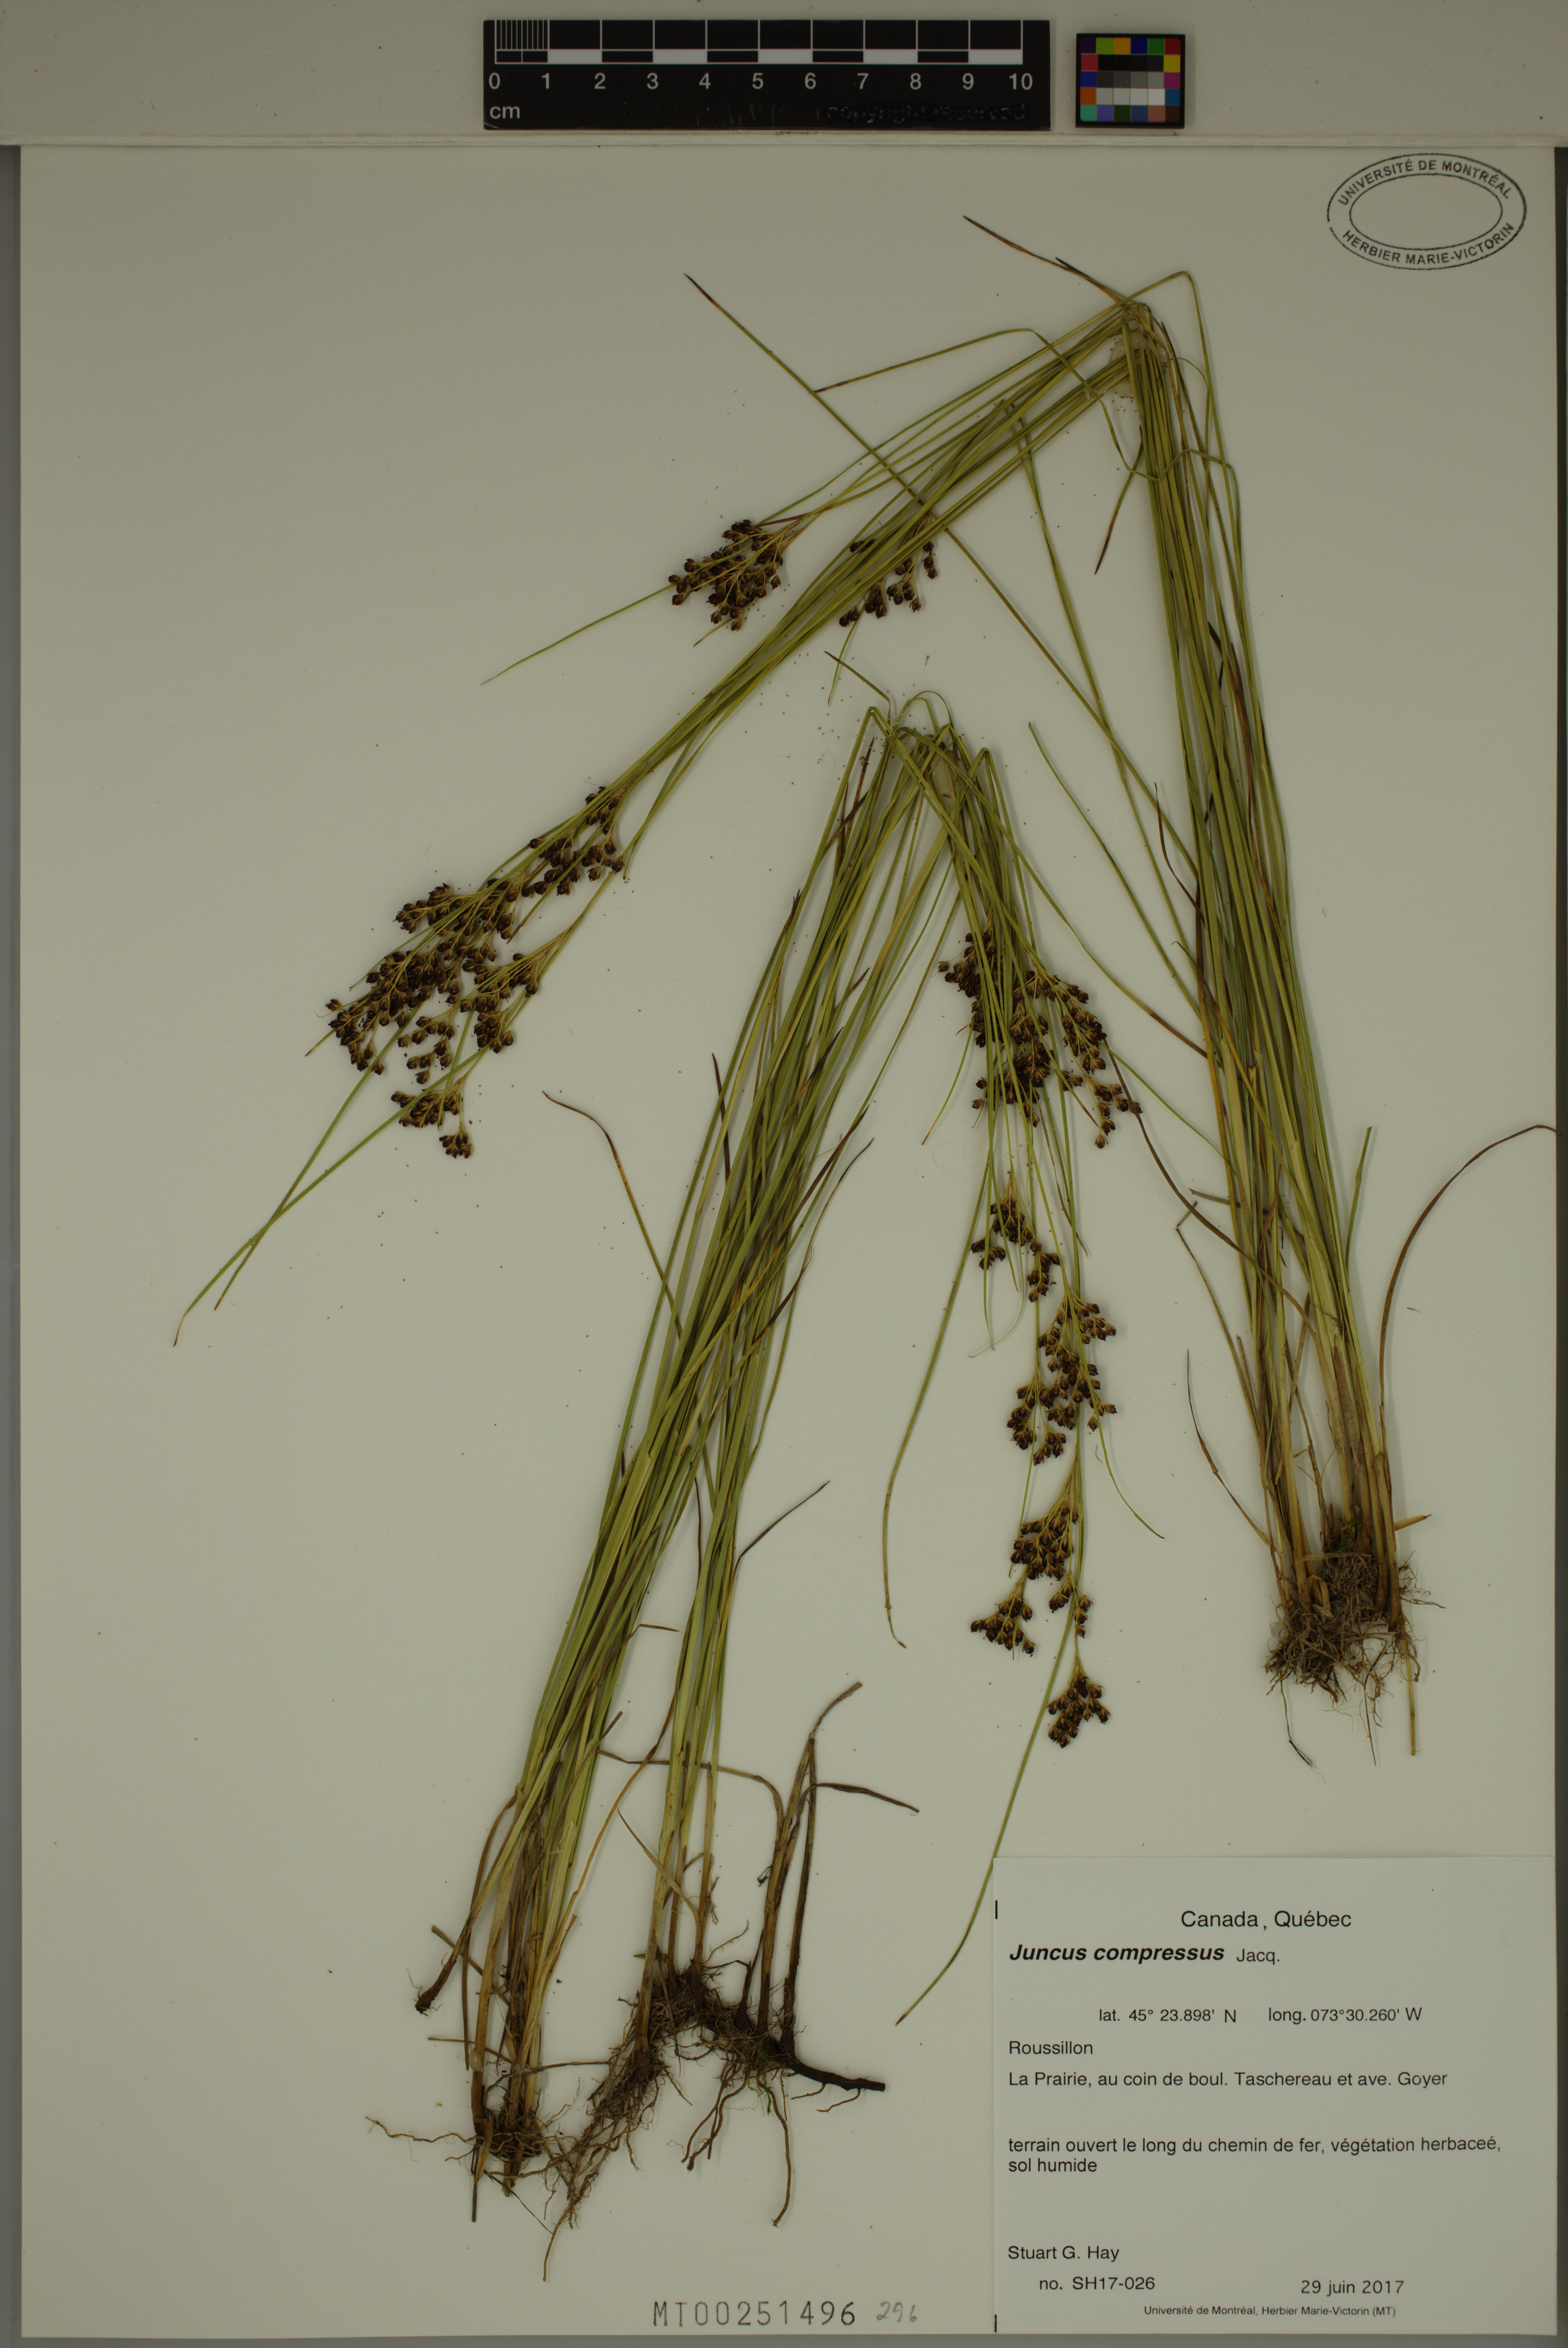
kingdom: Plantae
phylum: Tracheophyta
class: Liliopsida
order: Poales
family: Juncaceae
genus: Juncus
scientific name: Juncus compressus
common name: Round-fruited rush
